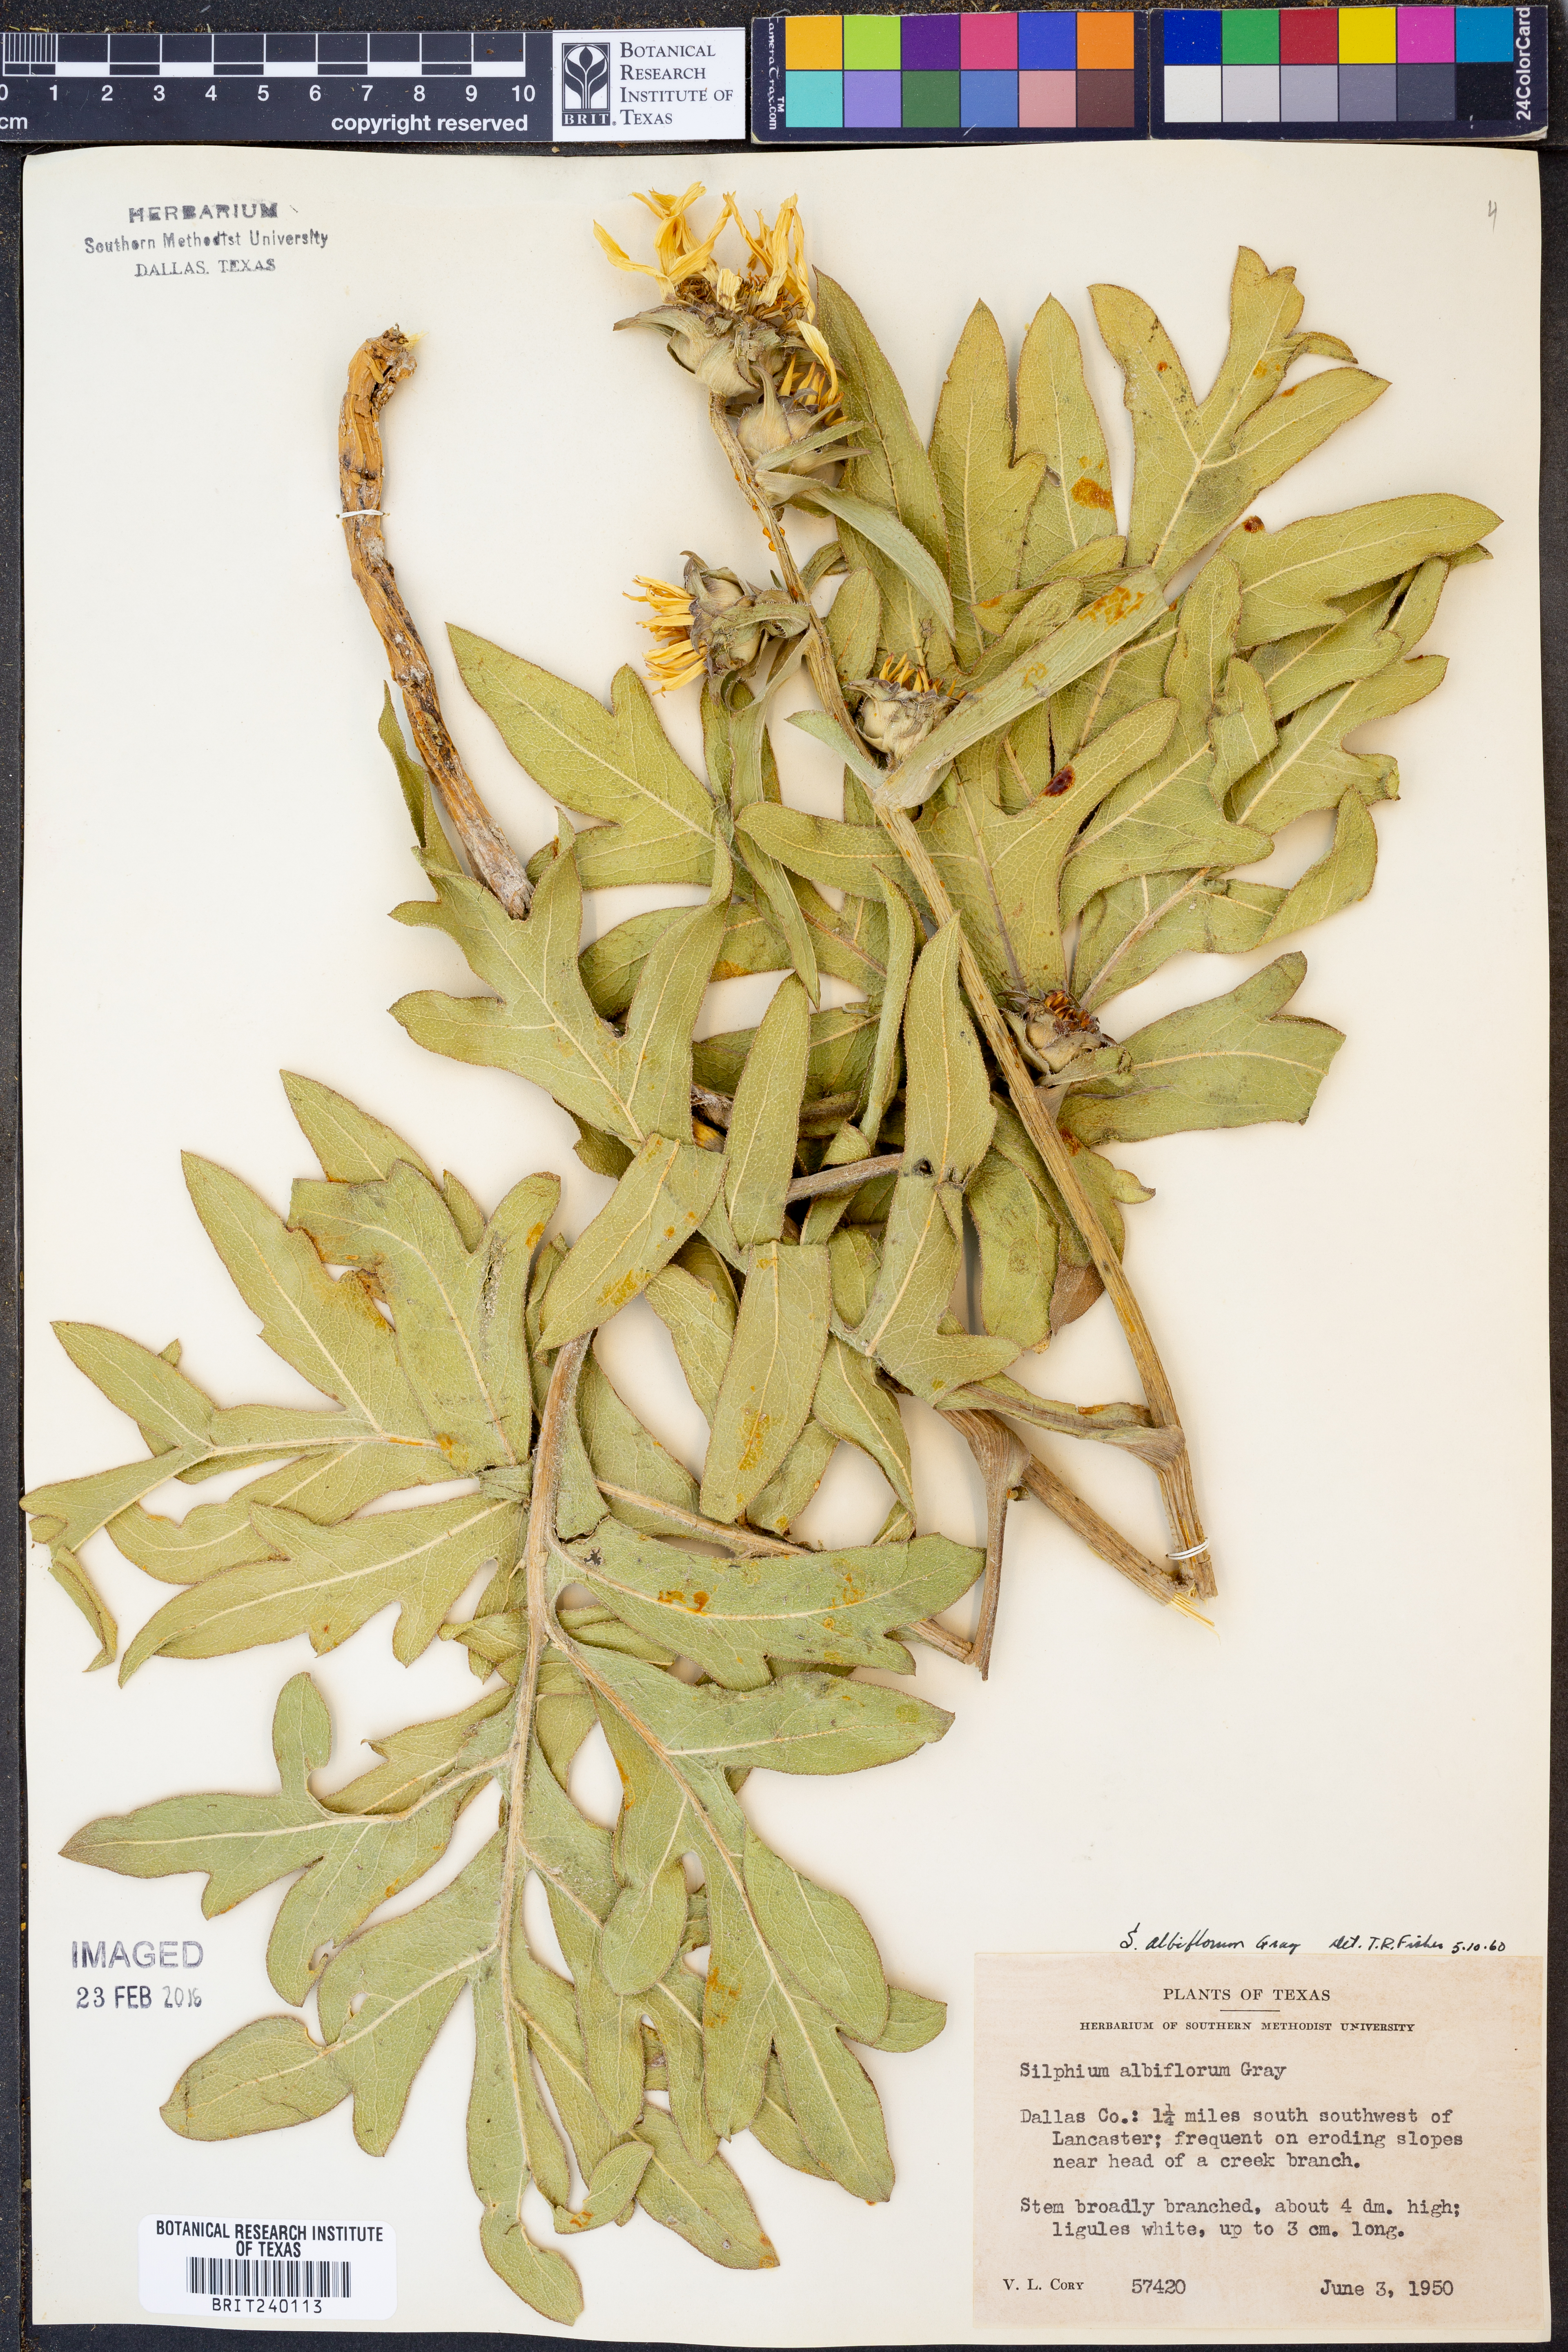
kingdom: Plantae
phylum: Tracheophyta
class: Magnoliopsida
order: Asterales
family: Asteraceae
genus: Silphium
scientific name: Silphium albiflorum
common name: White rosinweed
